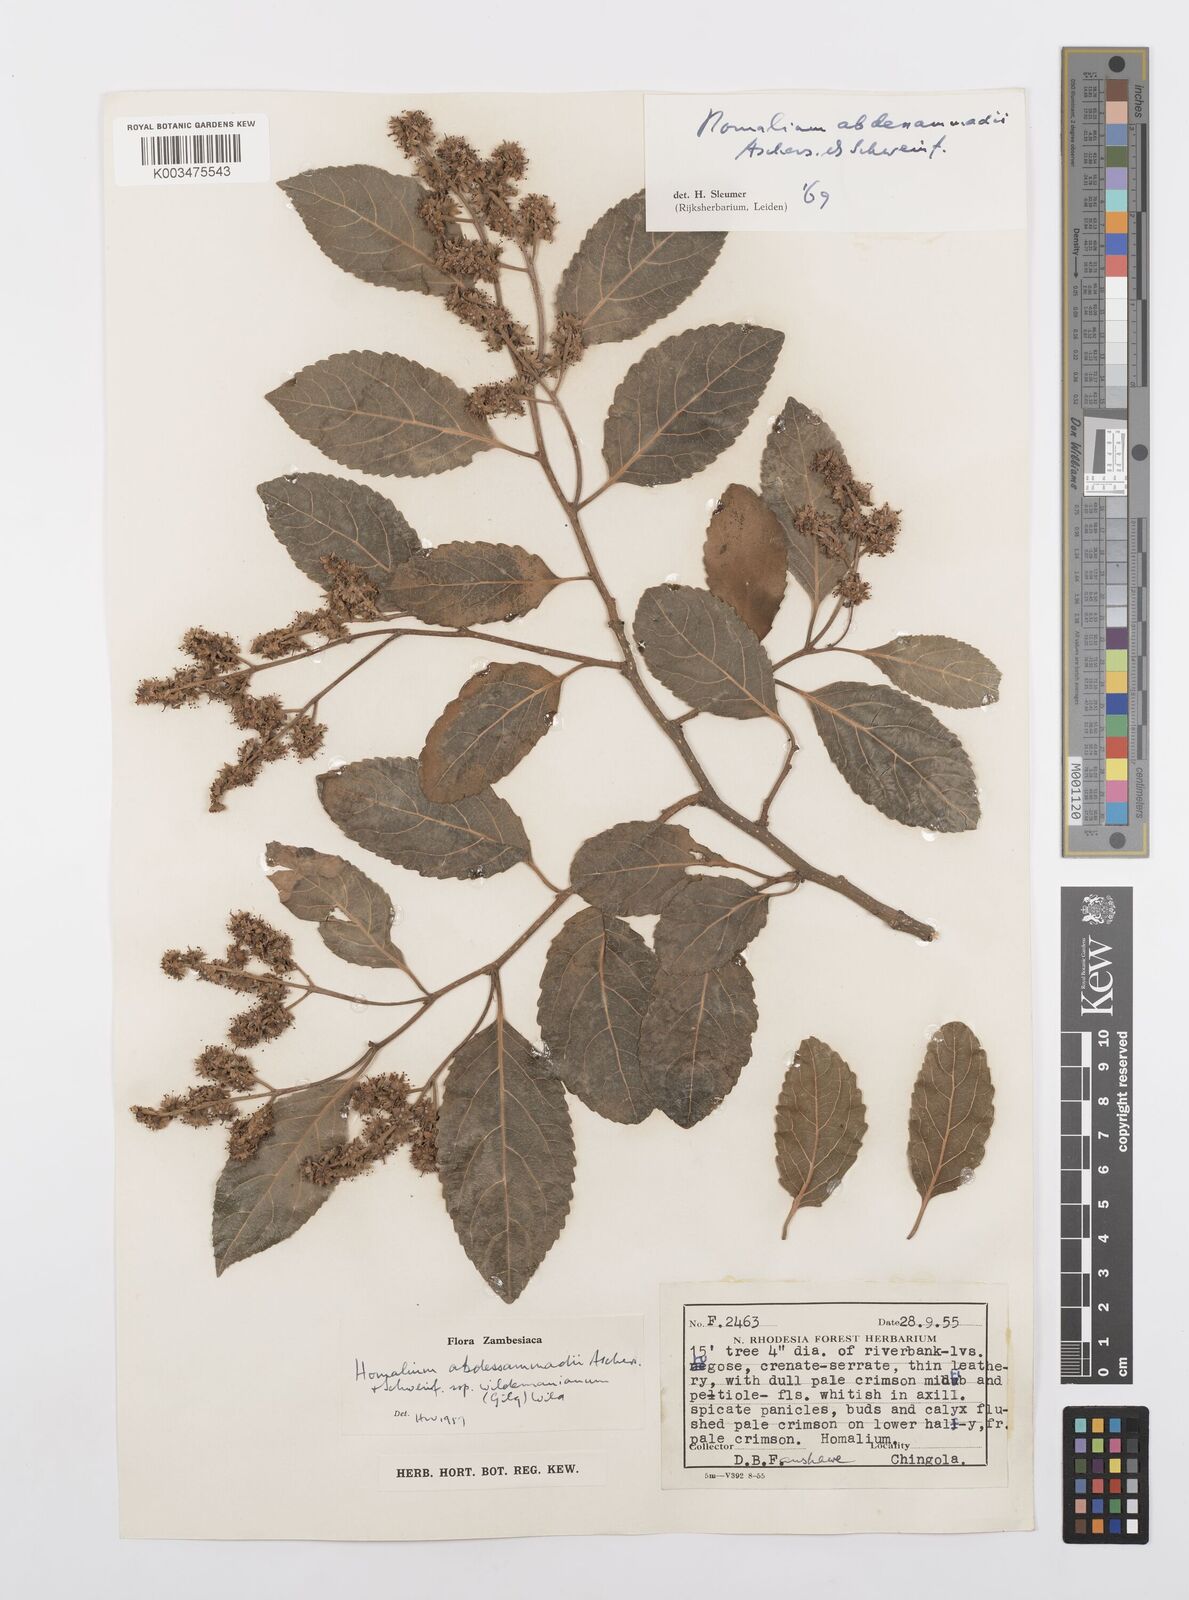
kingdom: Plantae
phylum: Tracheophyta
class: Magnoliopsida
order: Malpighiales
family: Salicaceae
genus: Homalium
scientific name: Homalium abdessammadii
